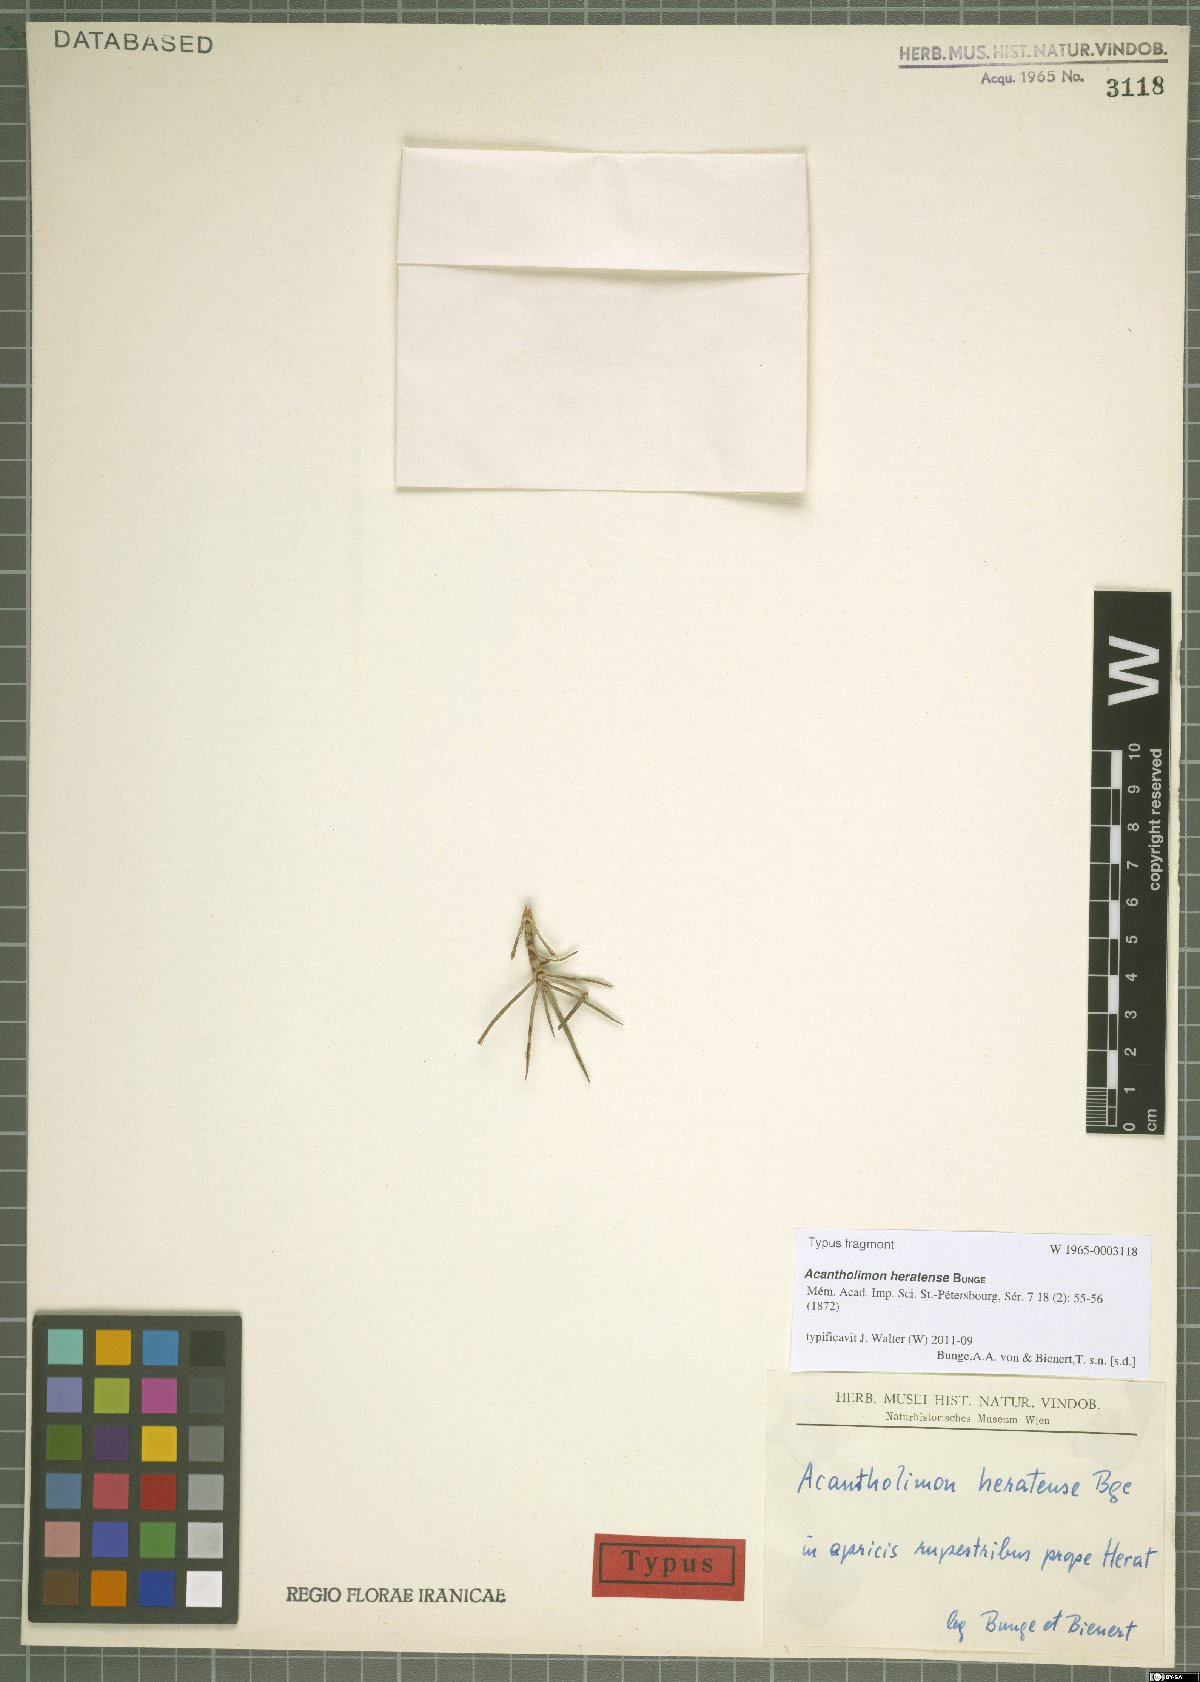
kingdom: Plantae
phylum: Tracheophyta
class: Magnoliopsida
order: Caryophyllales
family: Plumbaginaceae
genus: Acantholimon
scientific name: Acantholimon heratense
